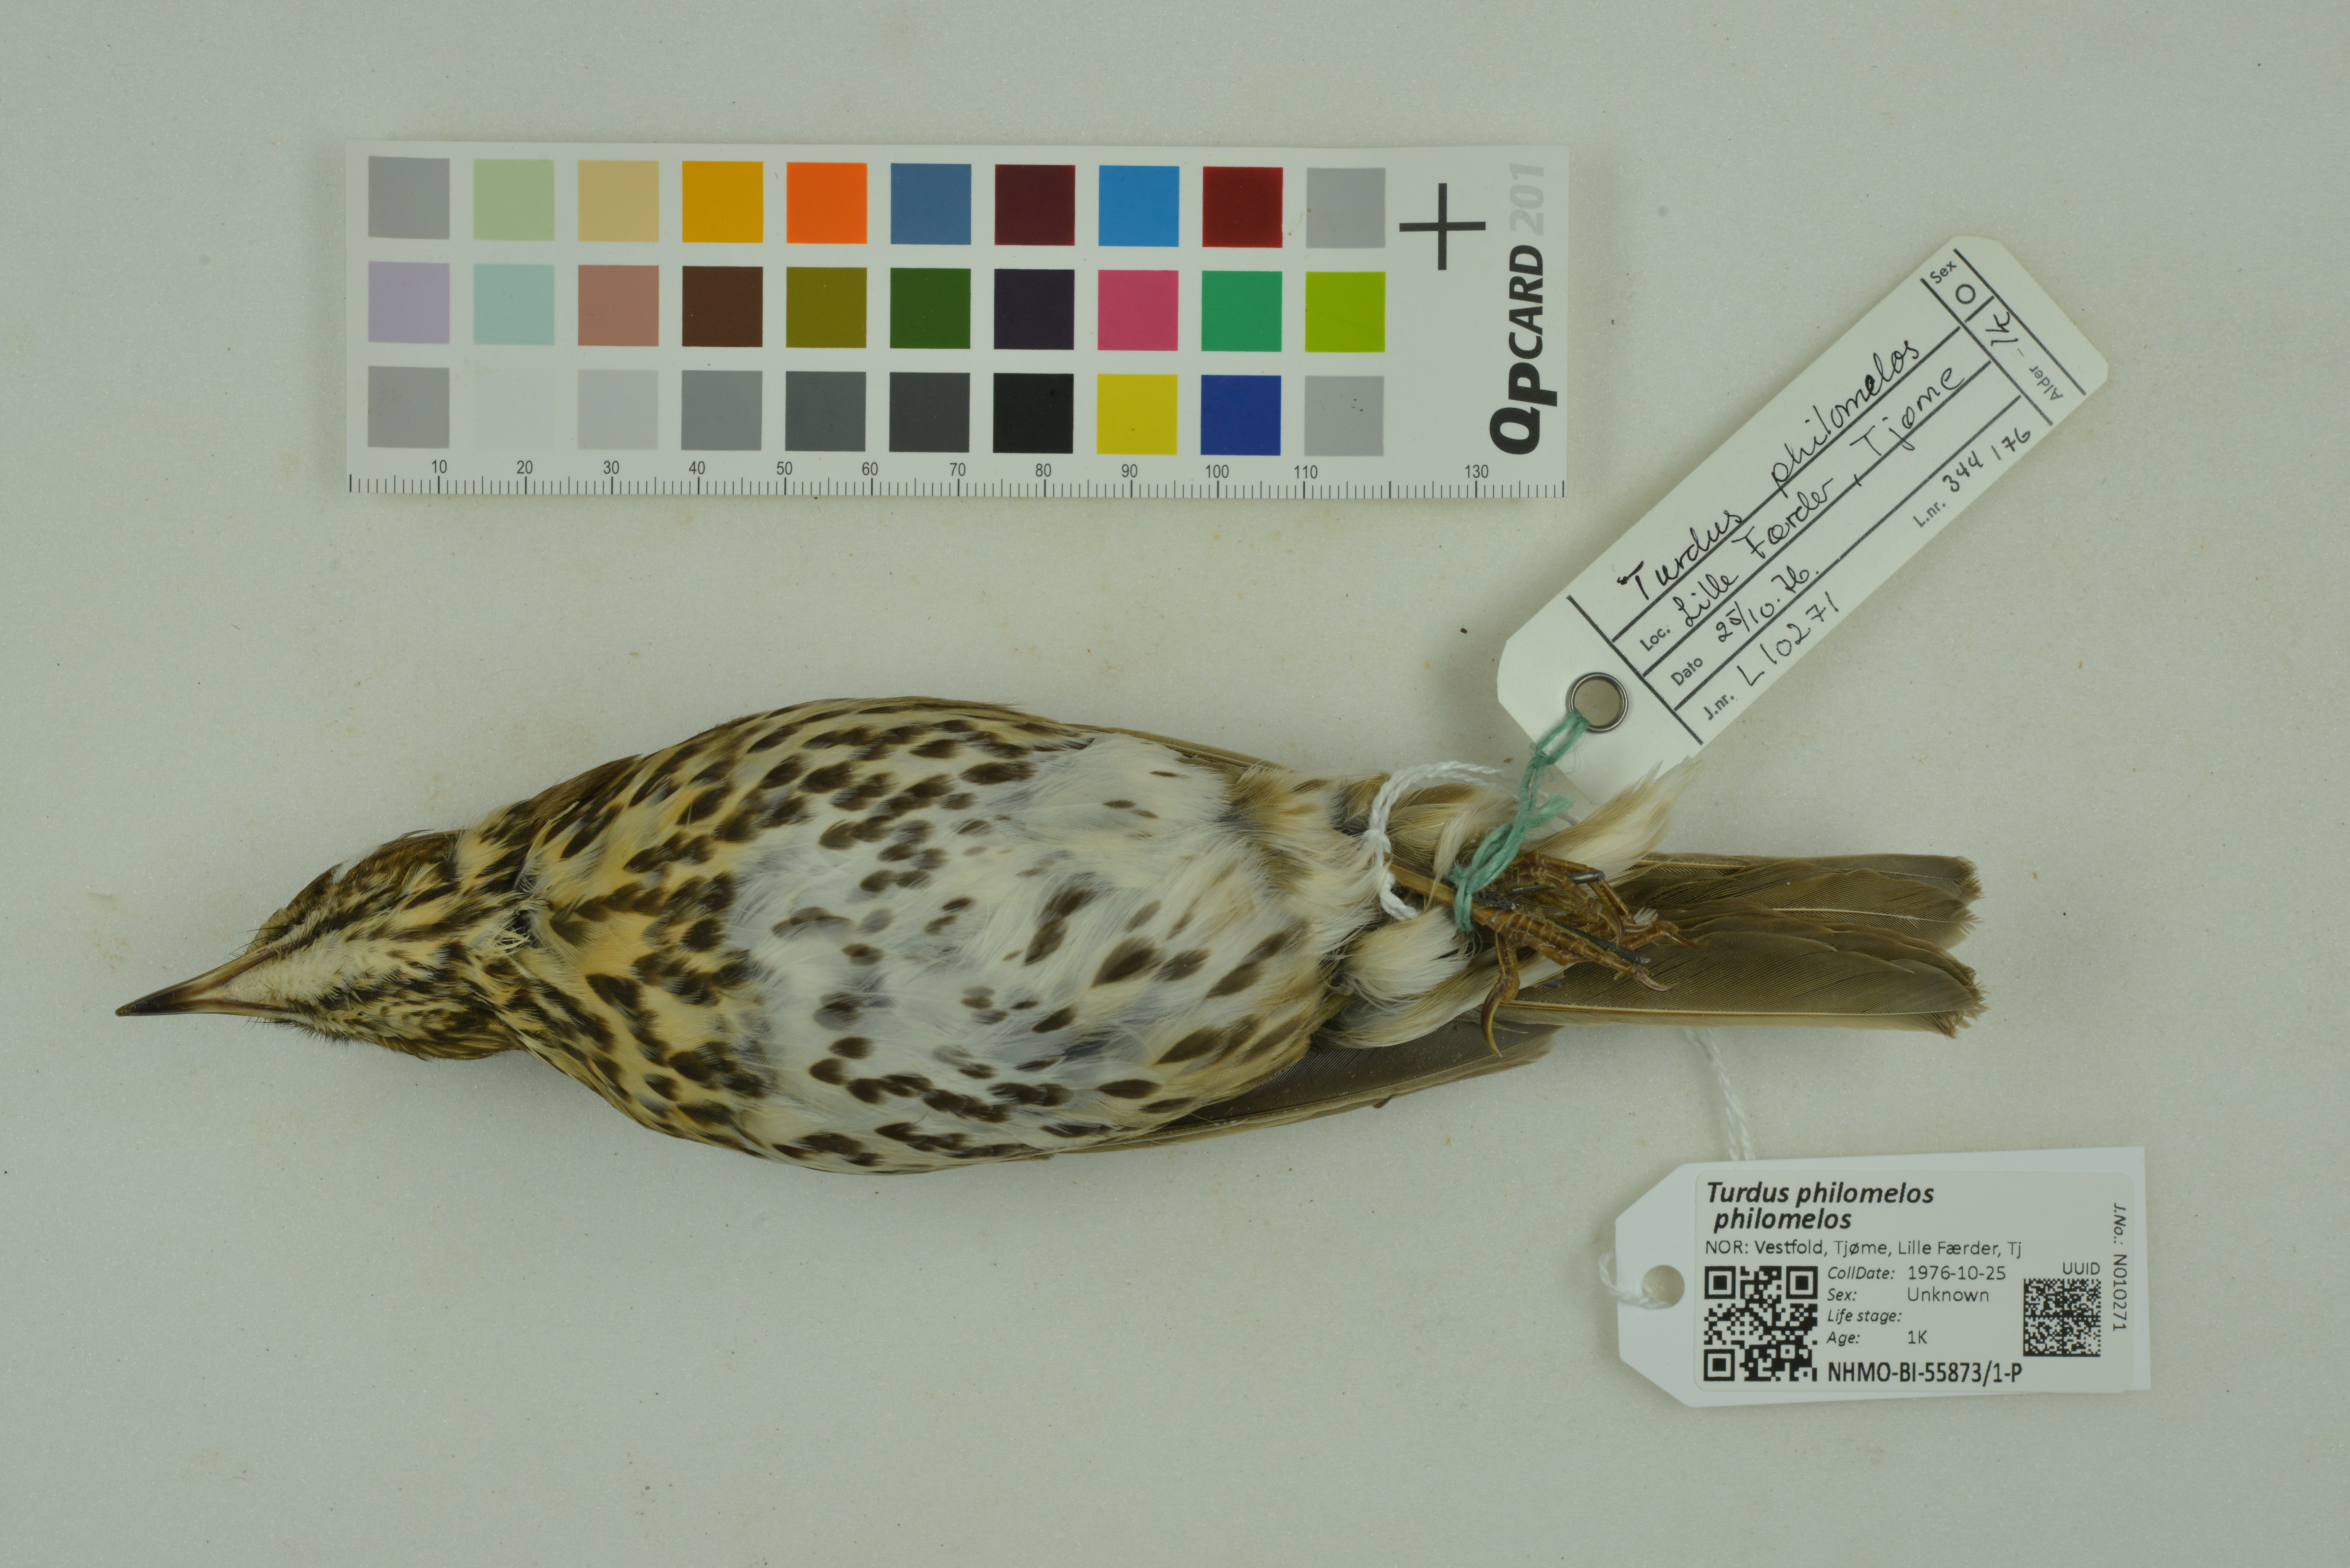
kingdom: Animalia
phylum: Chordata
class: Aves
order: Passeriformes
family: Turdidae
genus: Turdus
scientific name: Turdus philomelos
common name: Song thrush
